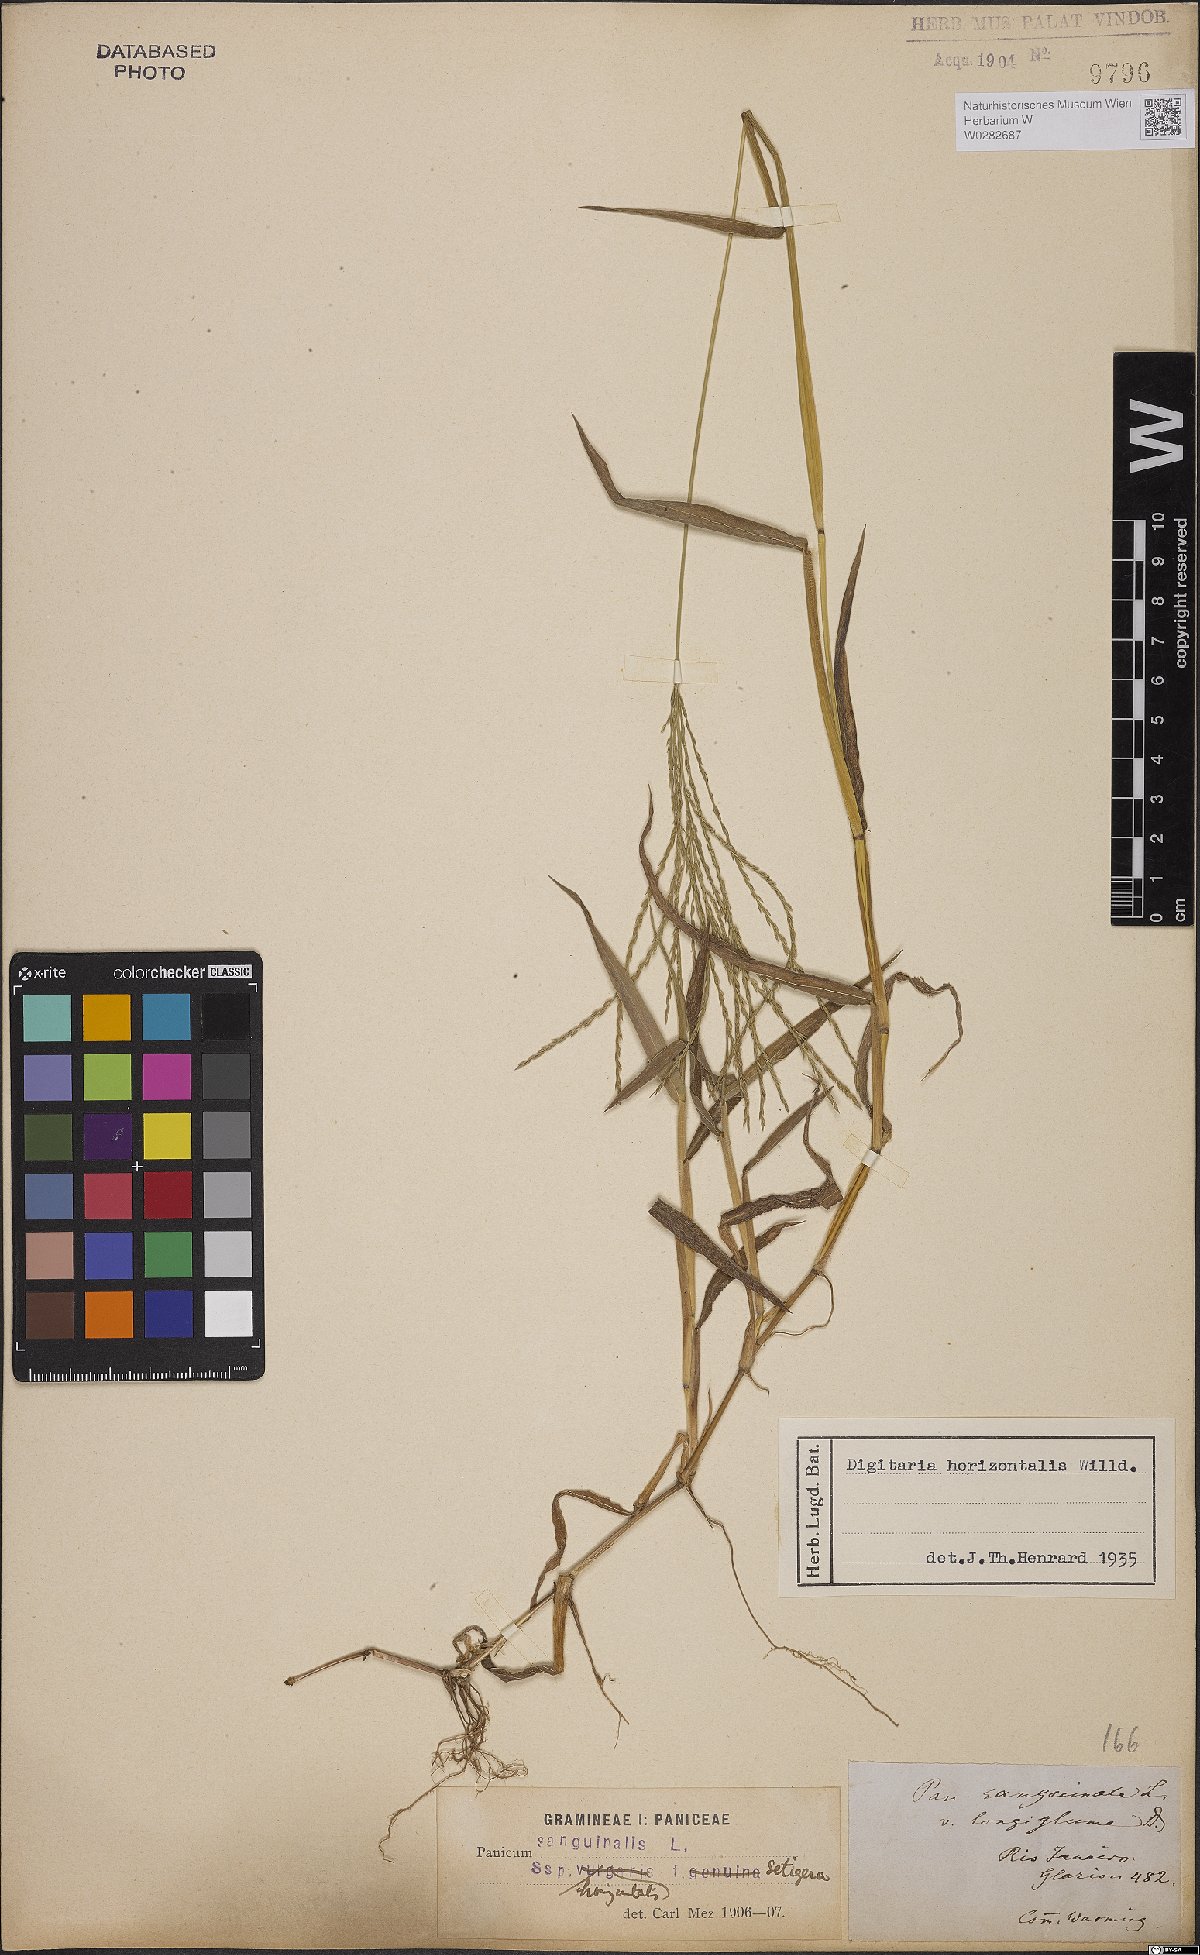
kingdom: Plantae
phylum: Tracheophyta
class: Liliopsida
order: Poales
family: Poaceae
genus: Digitaria
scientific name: Digitaria horizontalis
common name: Jamaican crabgrass
